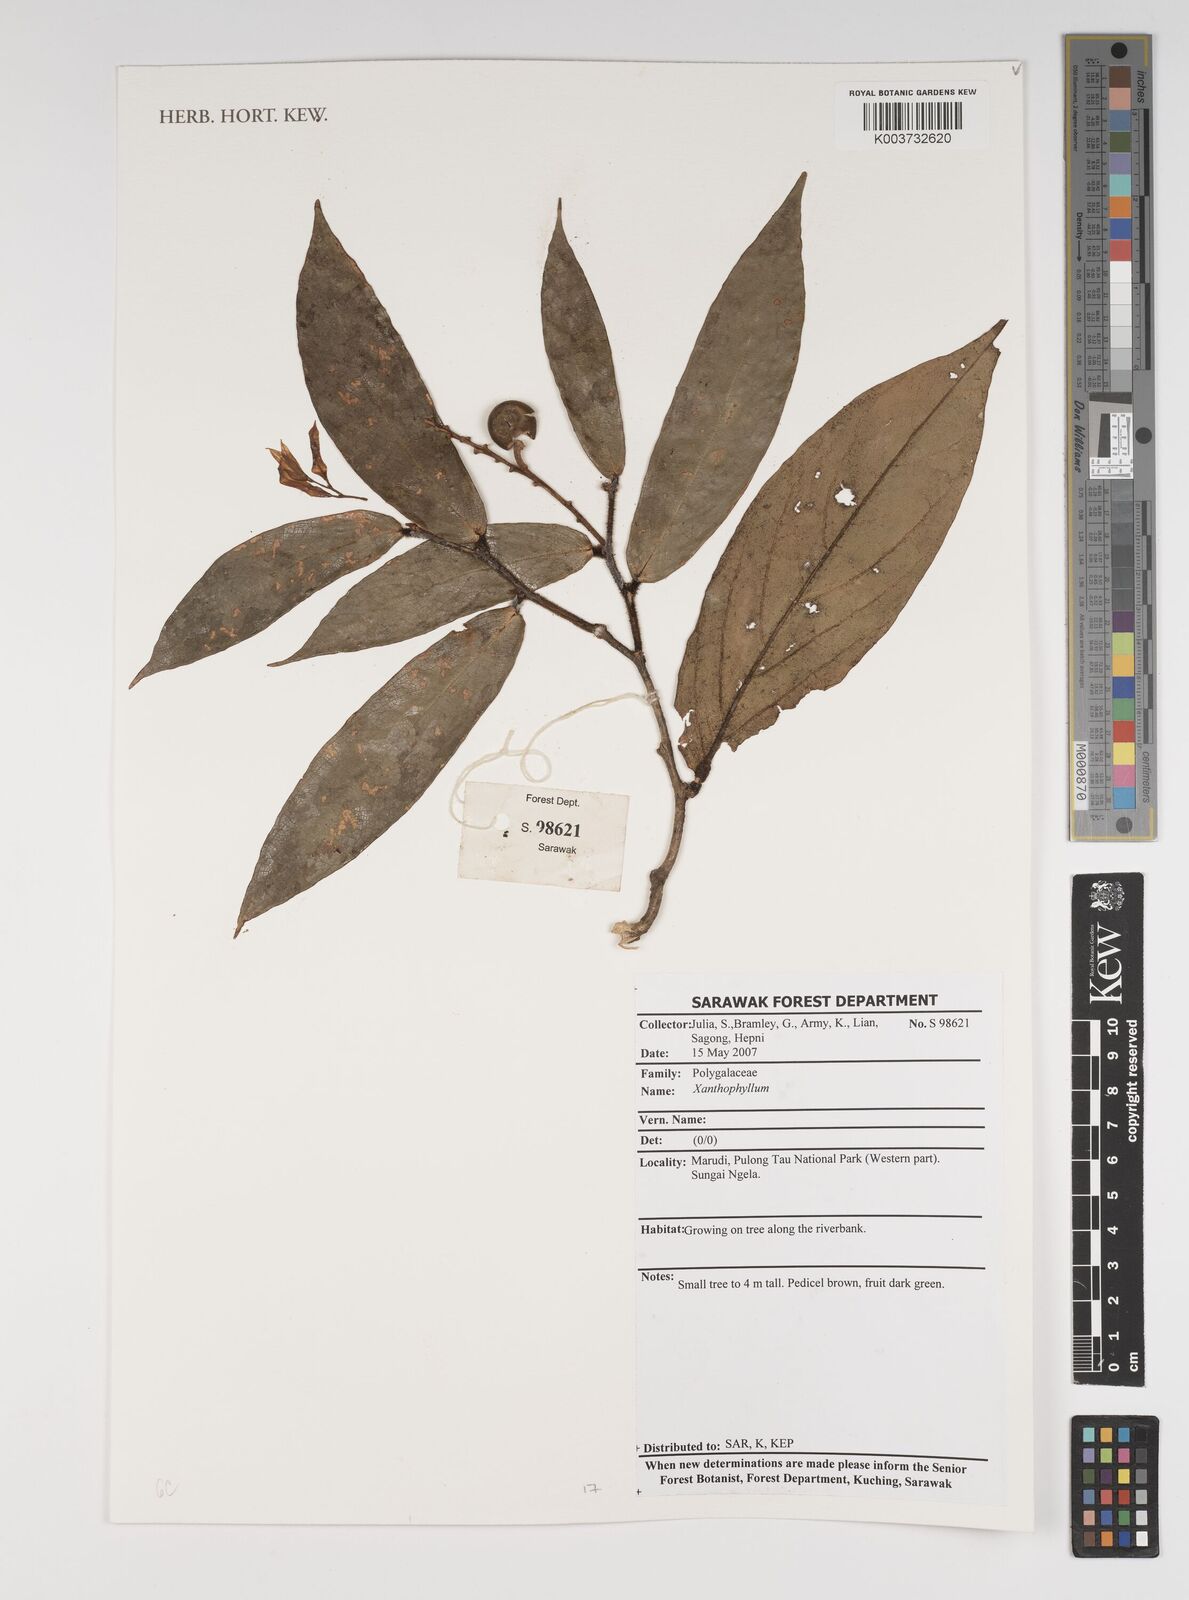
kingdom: Plantae
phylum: Tracheophyta
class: Magnoliopsida
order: Fabales
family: Polygalaceae
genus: Xanthophyllum
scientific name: Xanthophyllum
